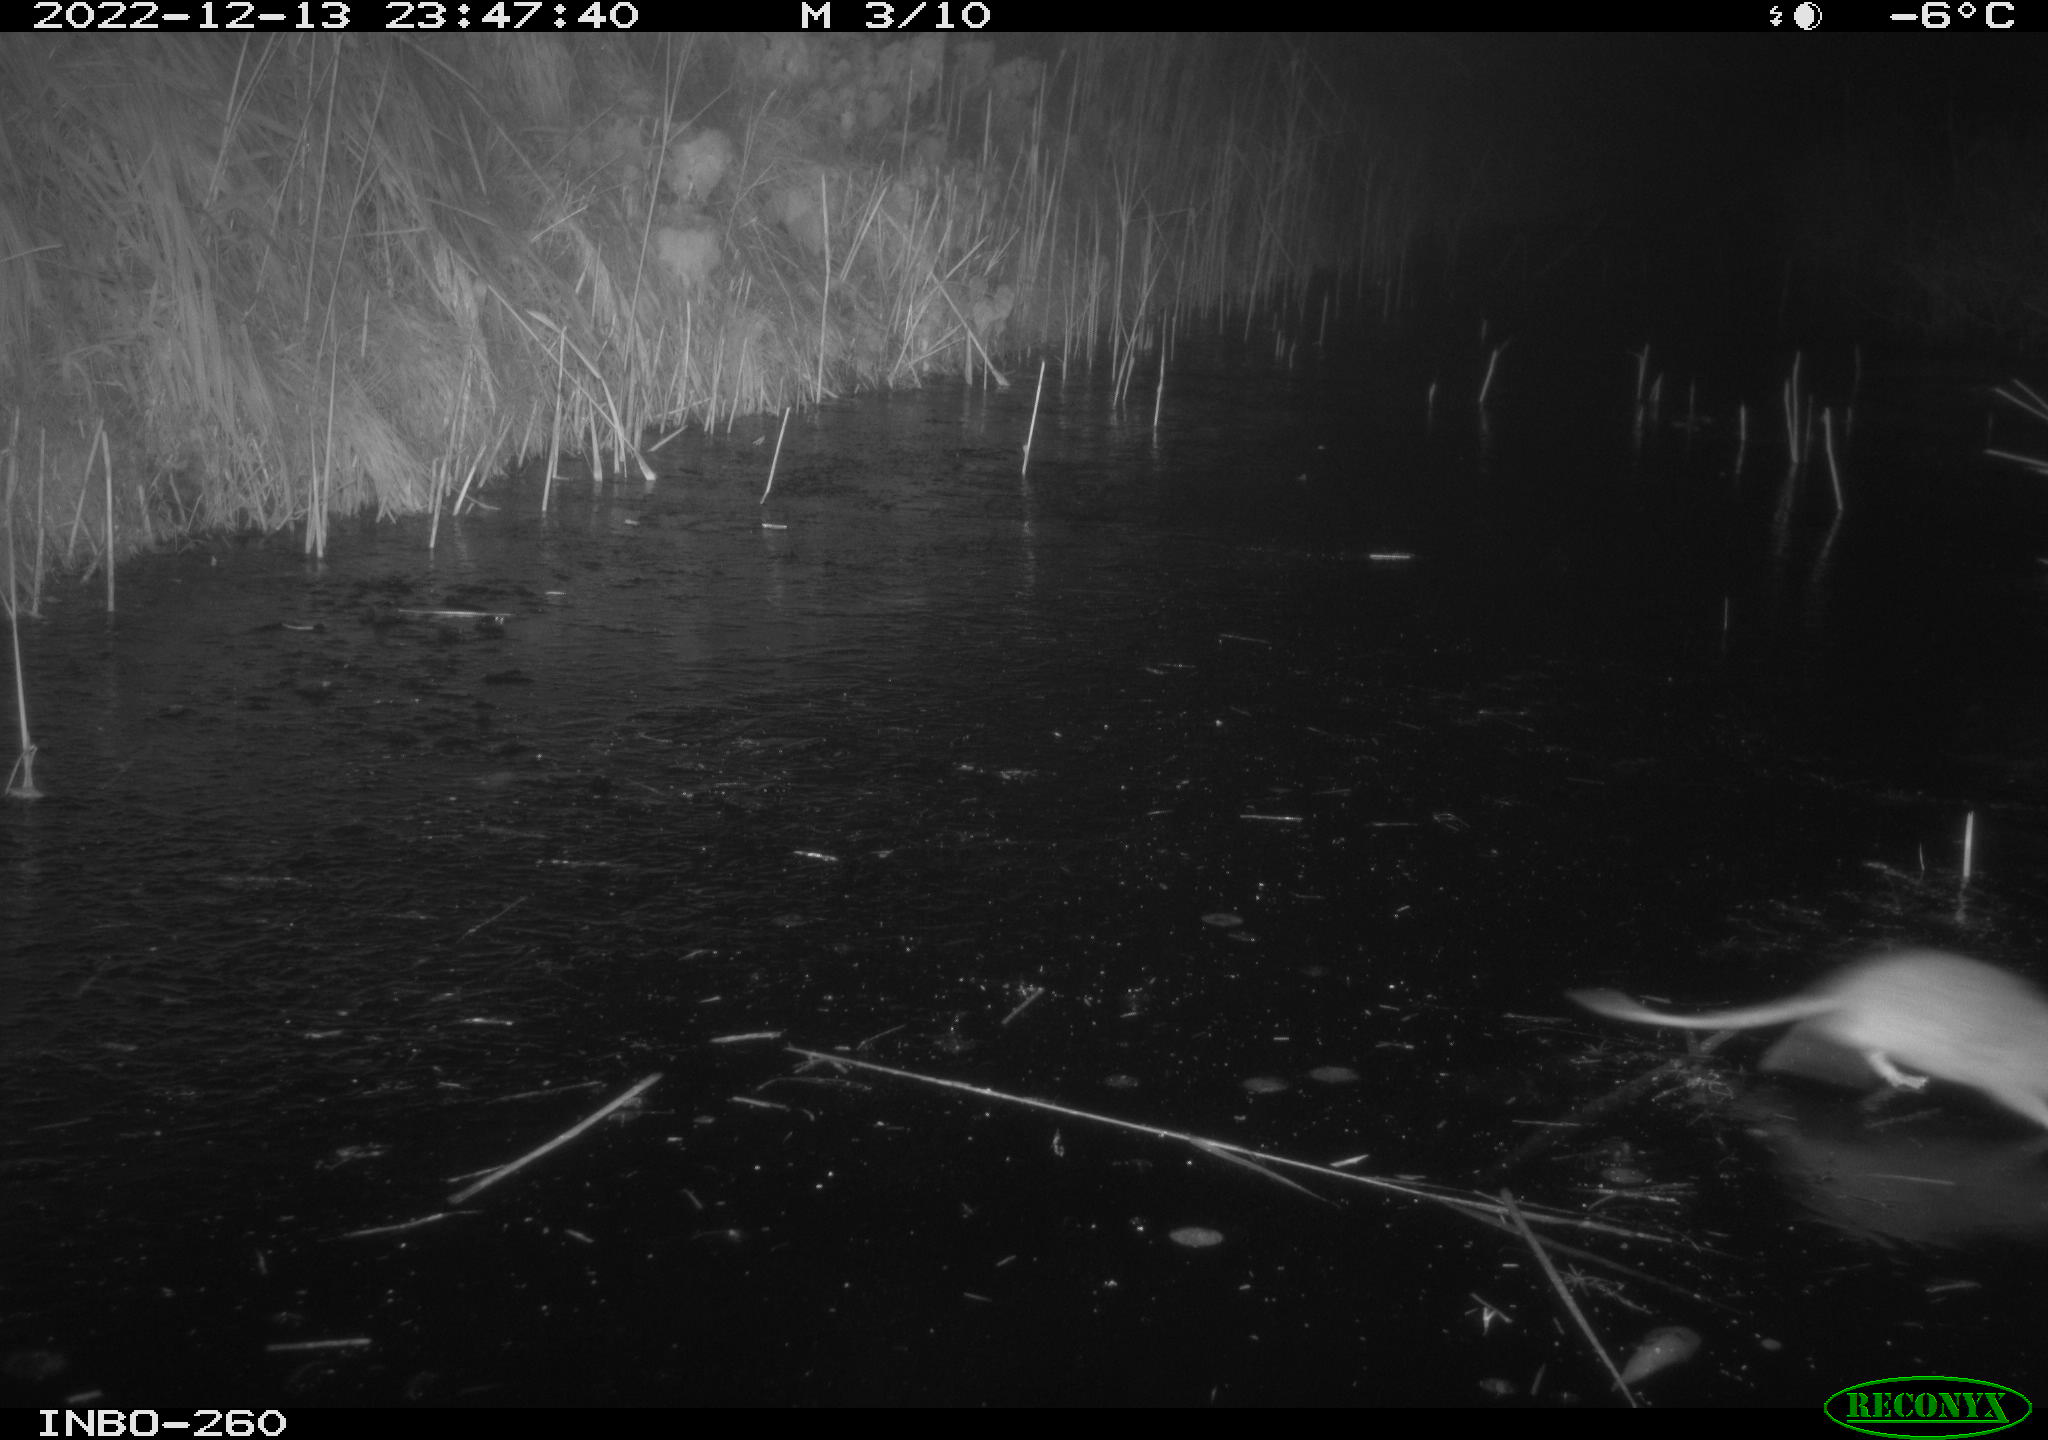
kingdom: Animalia
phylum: Chordata
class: Mammalia
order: Rodentia
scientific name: Rodentia
